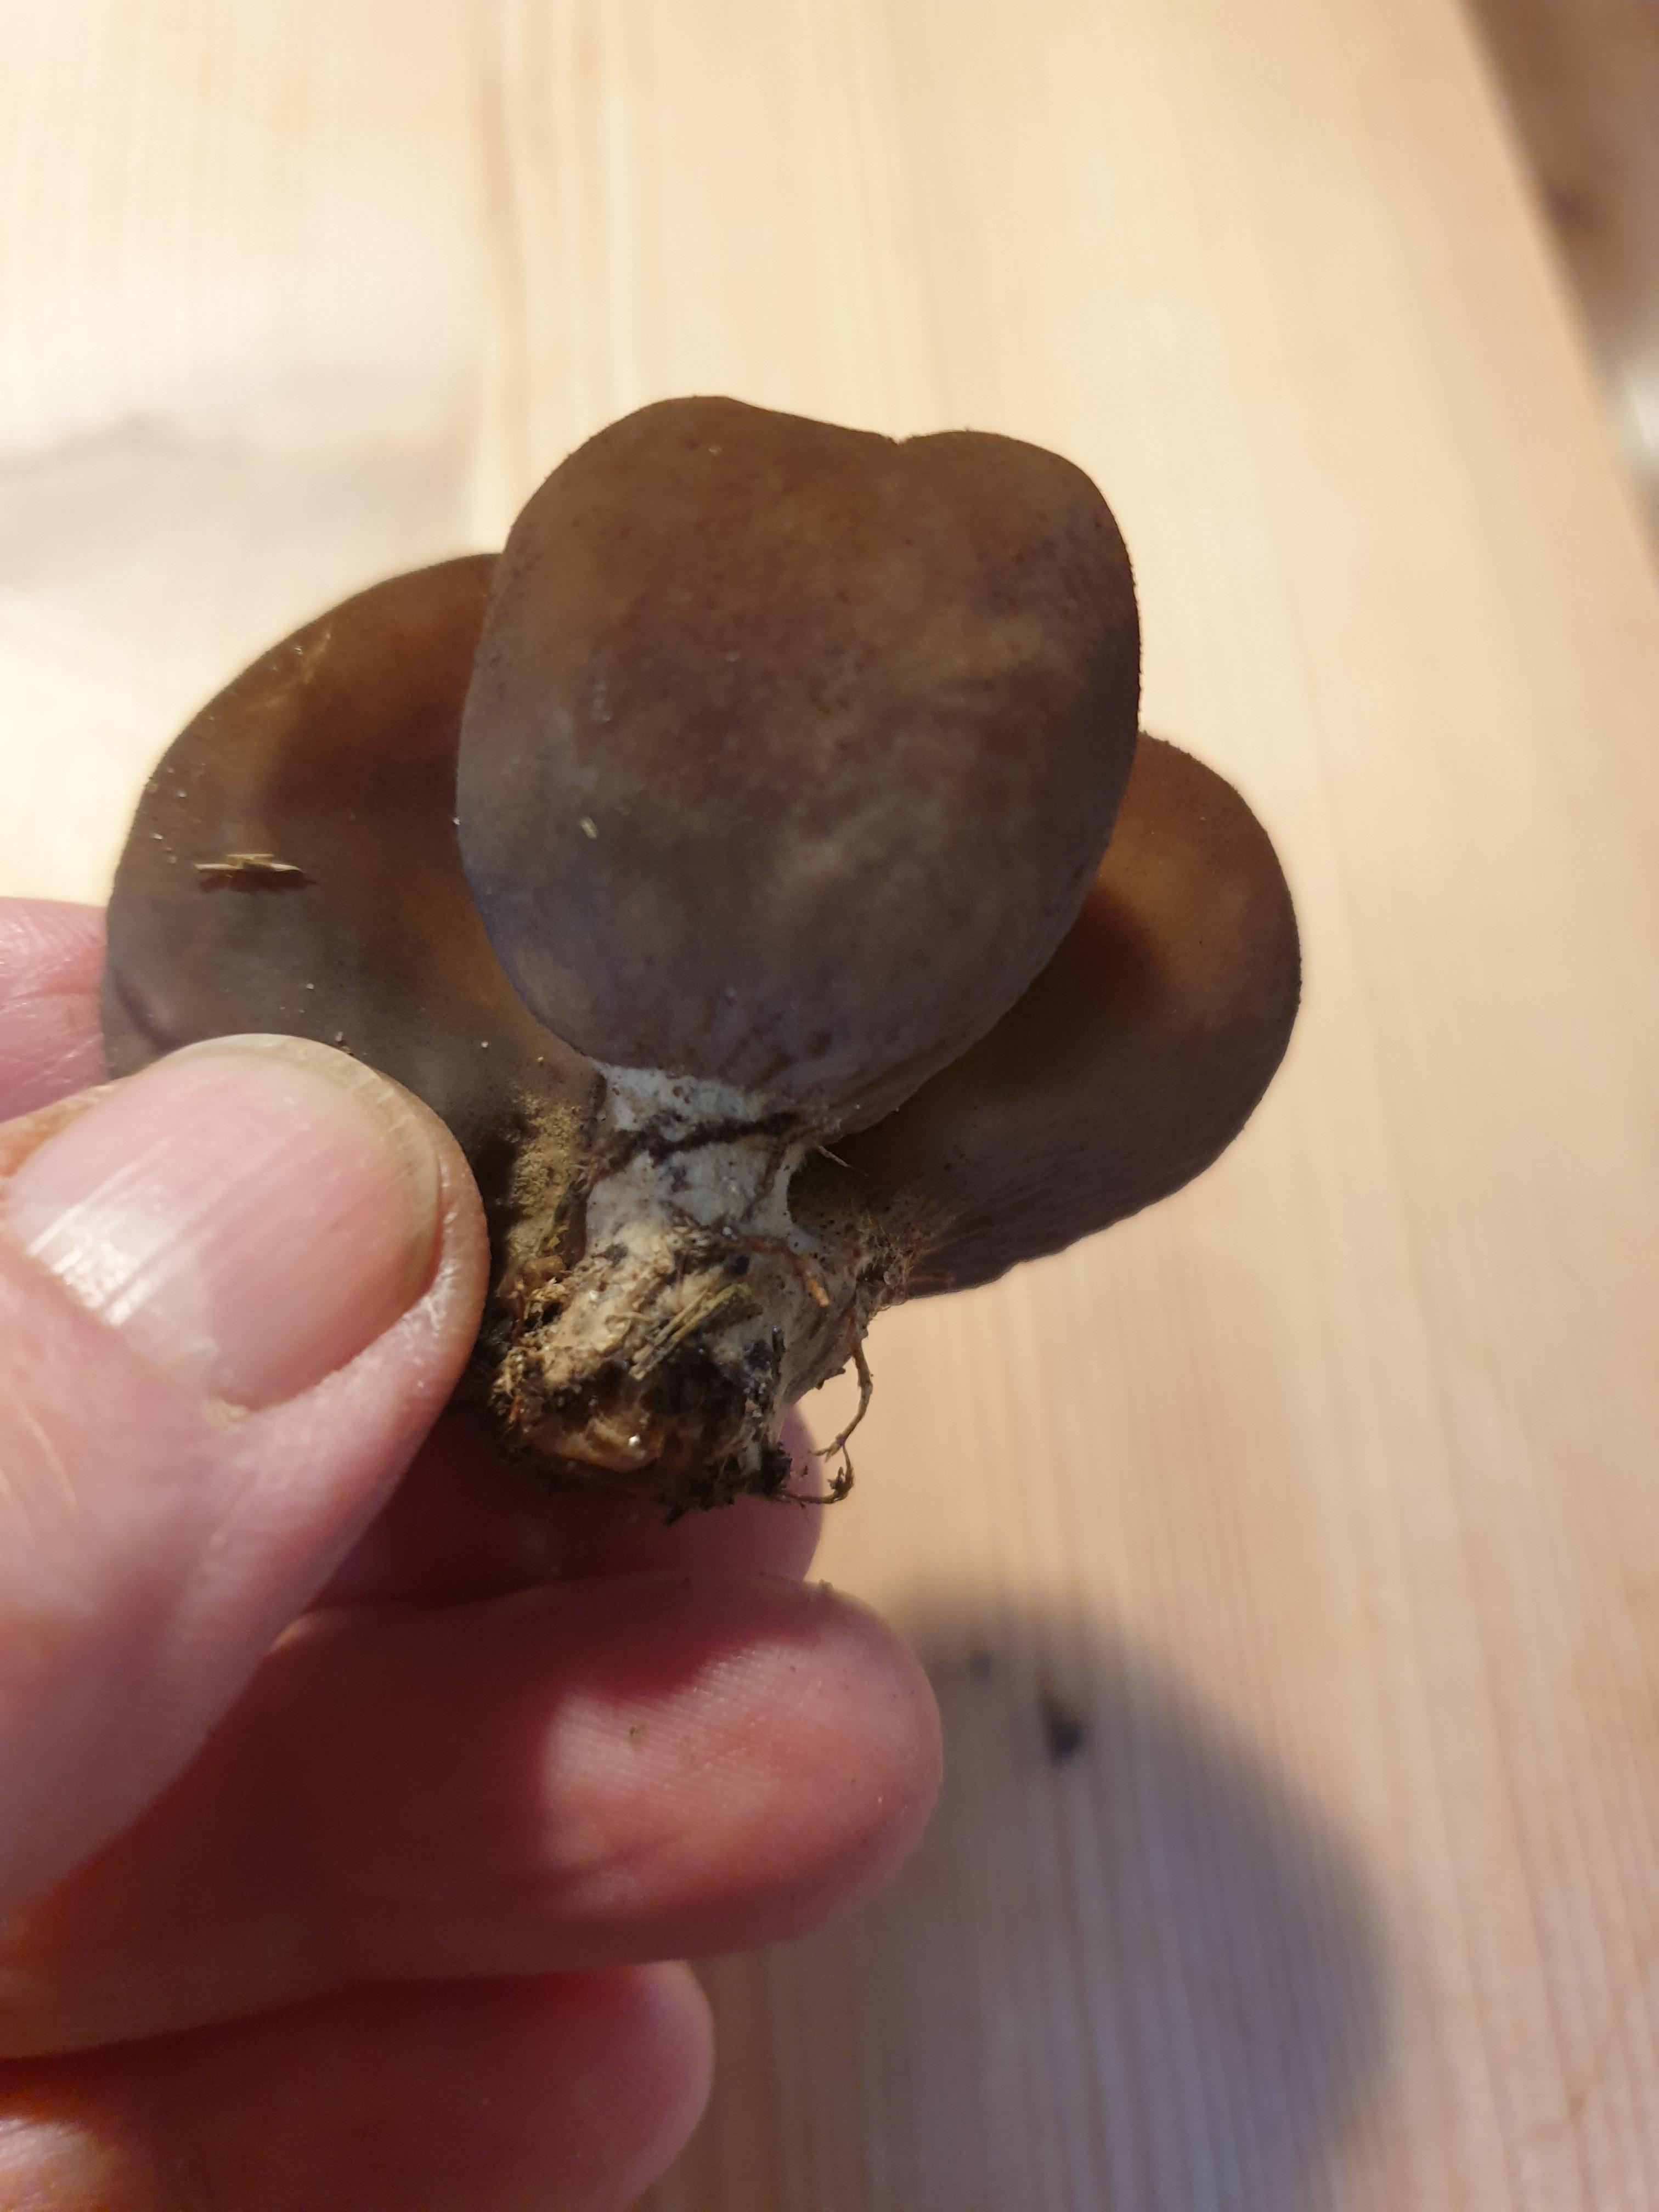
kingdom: Fungi
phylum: Ascomycota
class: Pezizomycetes
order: Pezizales
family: Otideaceae
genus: Otidea
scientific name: Otidea bufonia
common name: brun ørebæger
